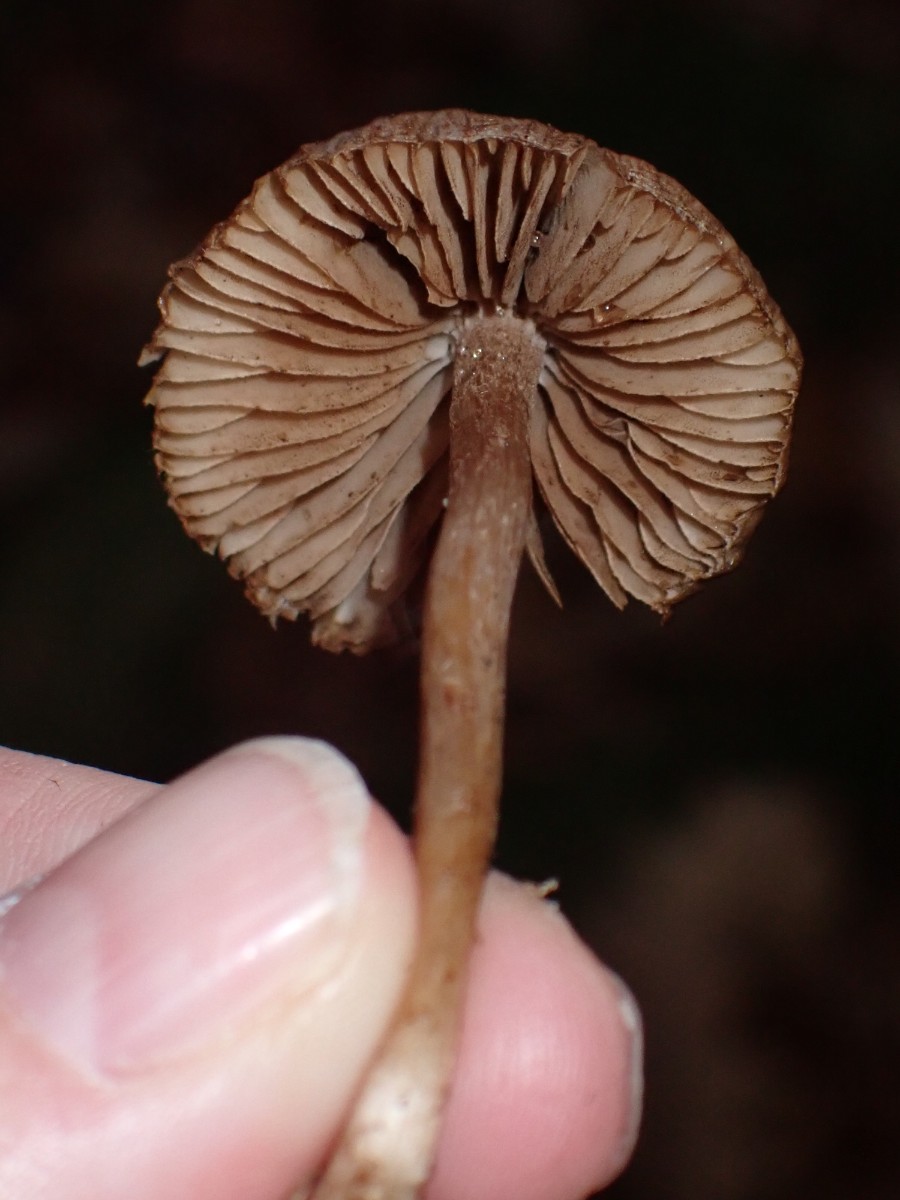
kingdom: Fungi
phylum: Basidiomycota
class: Agaricomycetes
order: Agaricales
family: Inocybaceae
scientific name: Inocybaceae
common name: trævlhatfamilien
